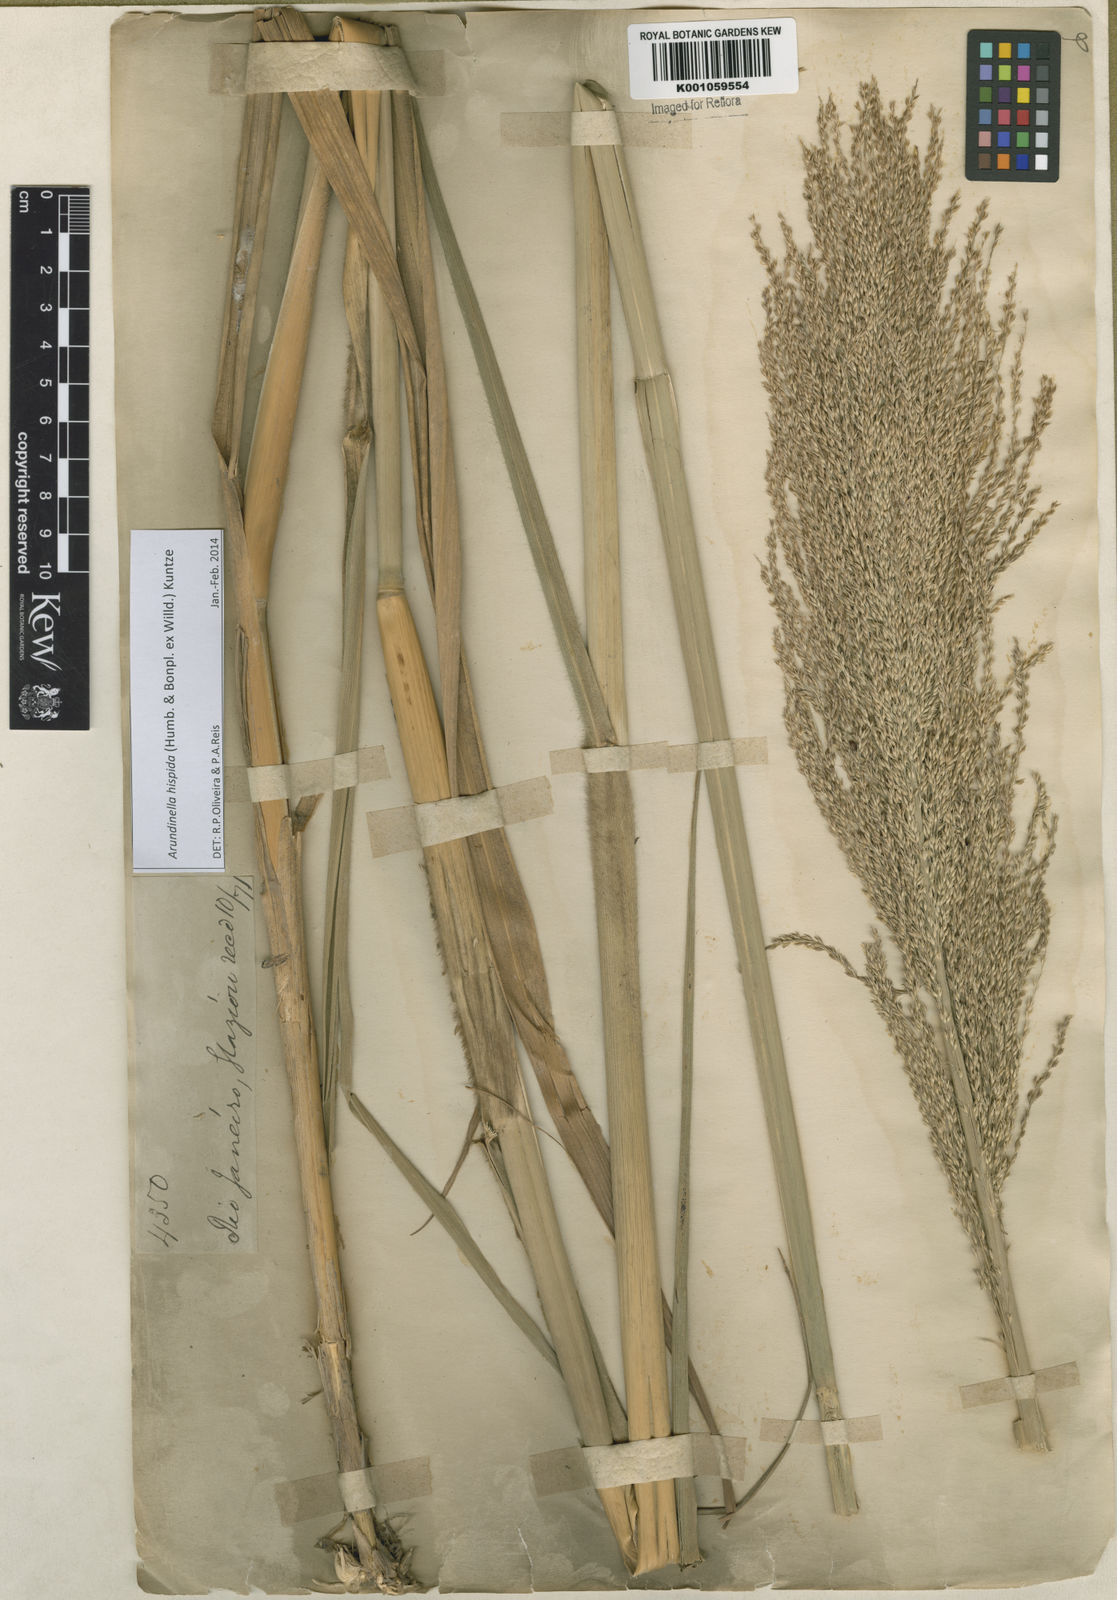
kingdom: Plantae
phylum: Tracheophyta
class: Liliopsida
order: Poales
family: Poaceae
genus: Arundinella
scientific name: Arundinella hispida
